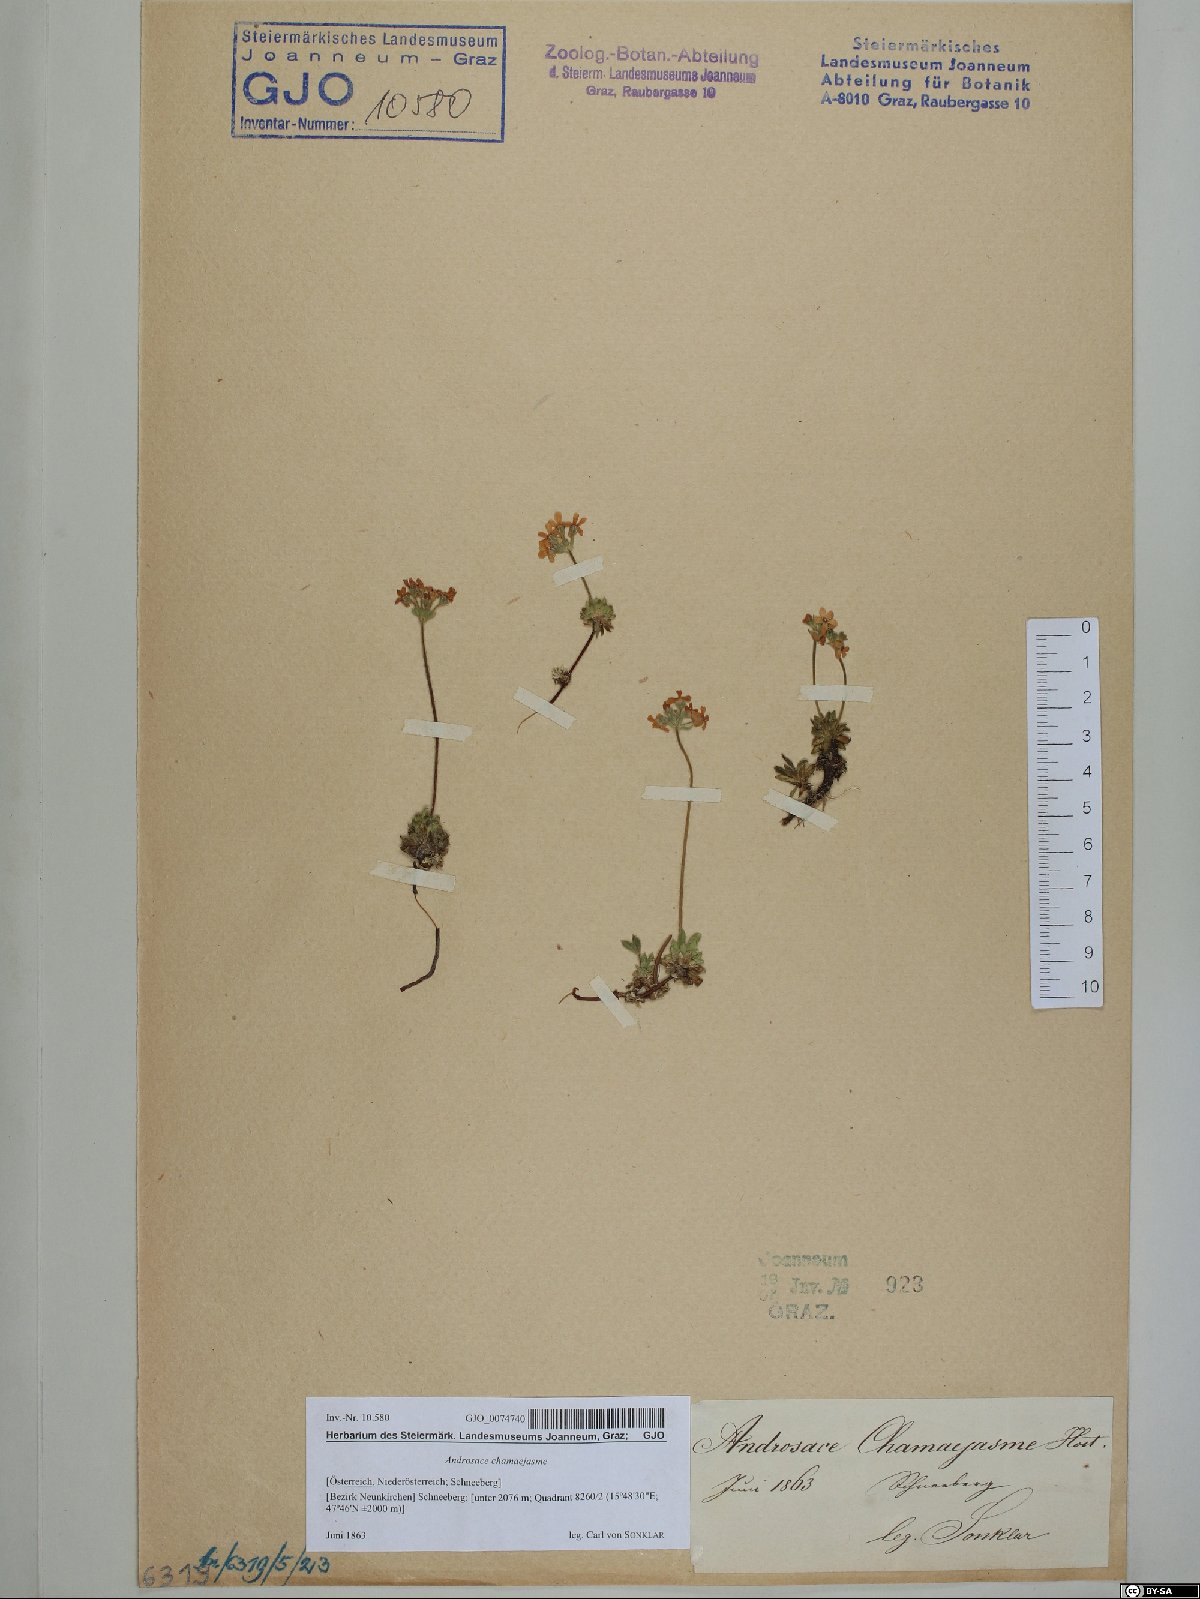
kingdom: Plantae
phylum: Tracheophyta
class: Magnoliopsida
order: Ericales
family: Primulaceae
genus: Androsace
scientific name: Androsace chamaejasme
